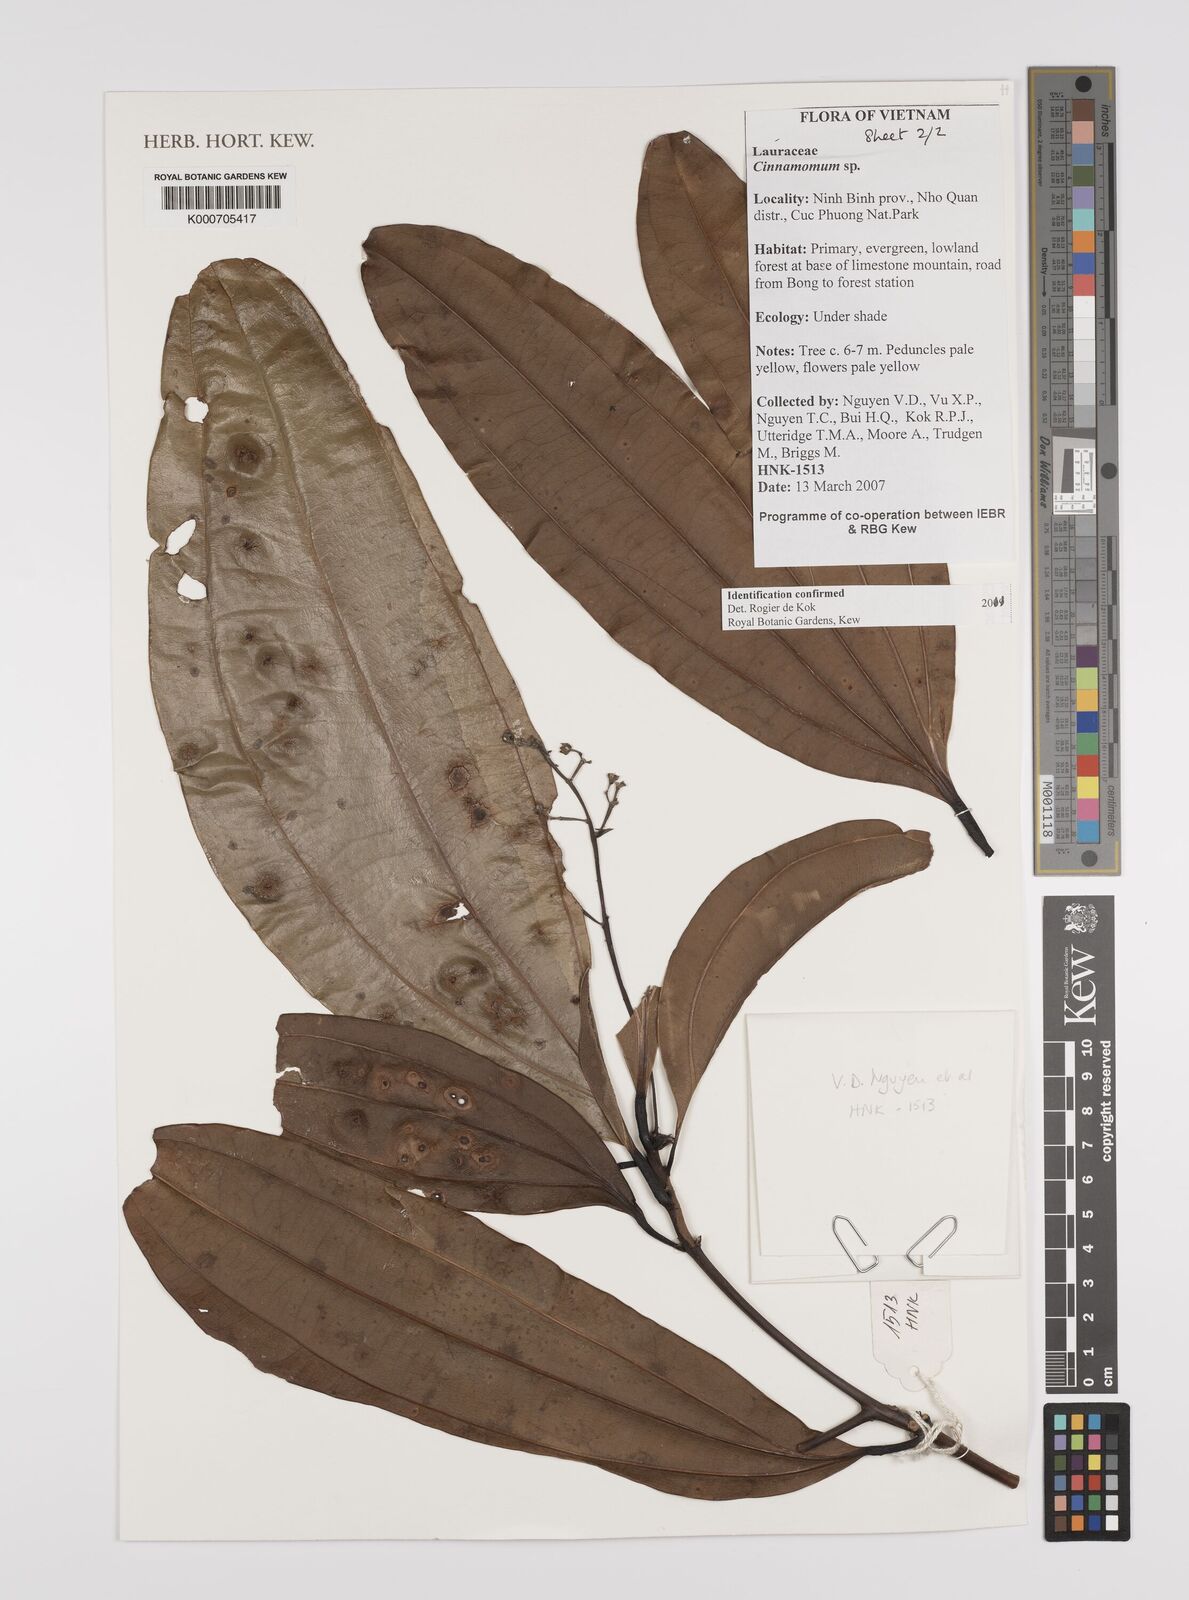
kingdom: Plantae
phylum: Tracheophyta
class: Magnoliopsida
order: Laurales
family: Lauraceae
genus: Cinnamomum
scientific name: Cinnamomum
